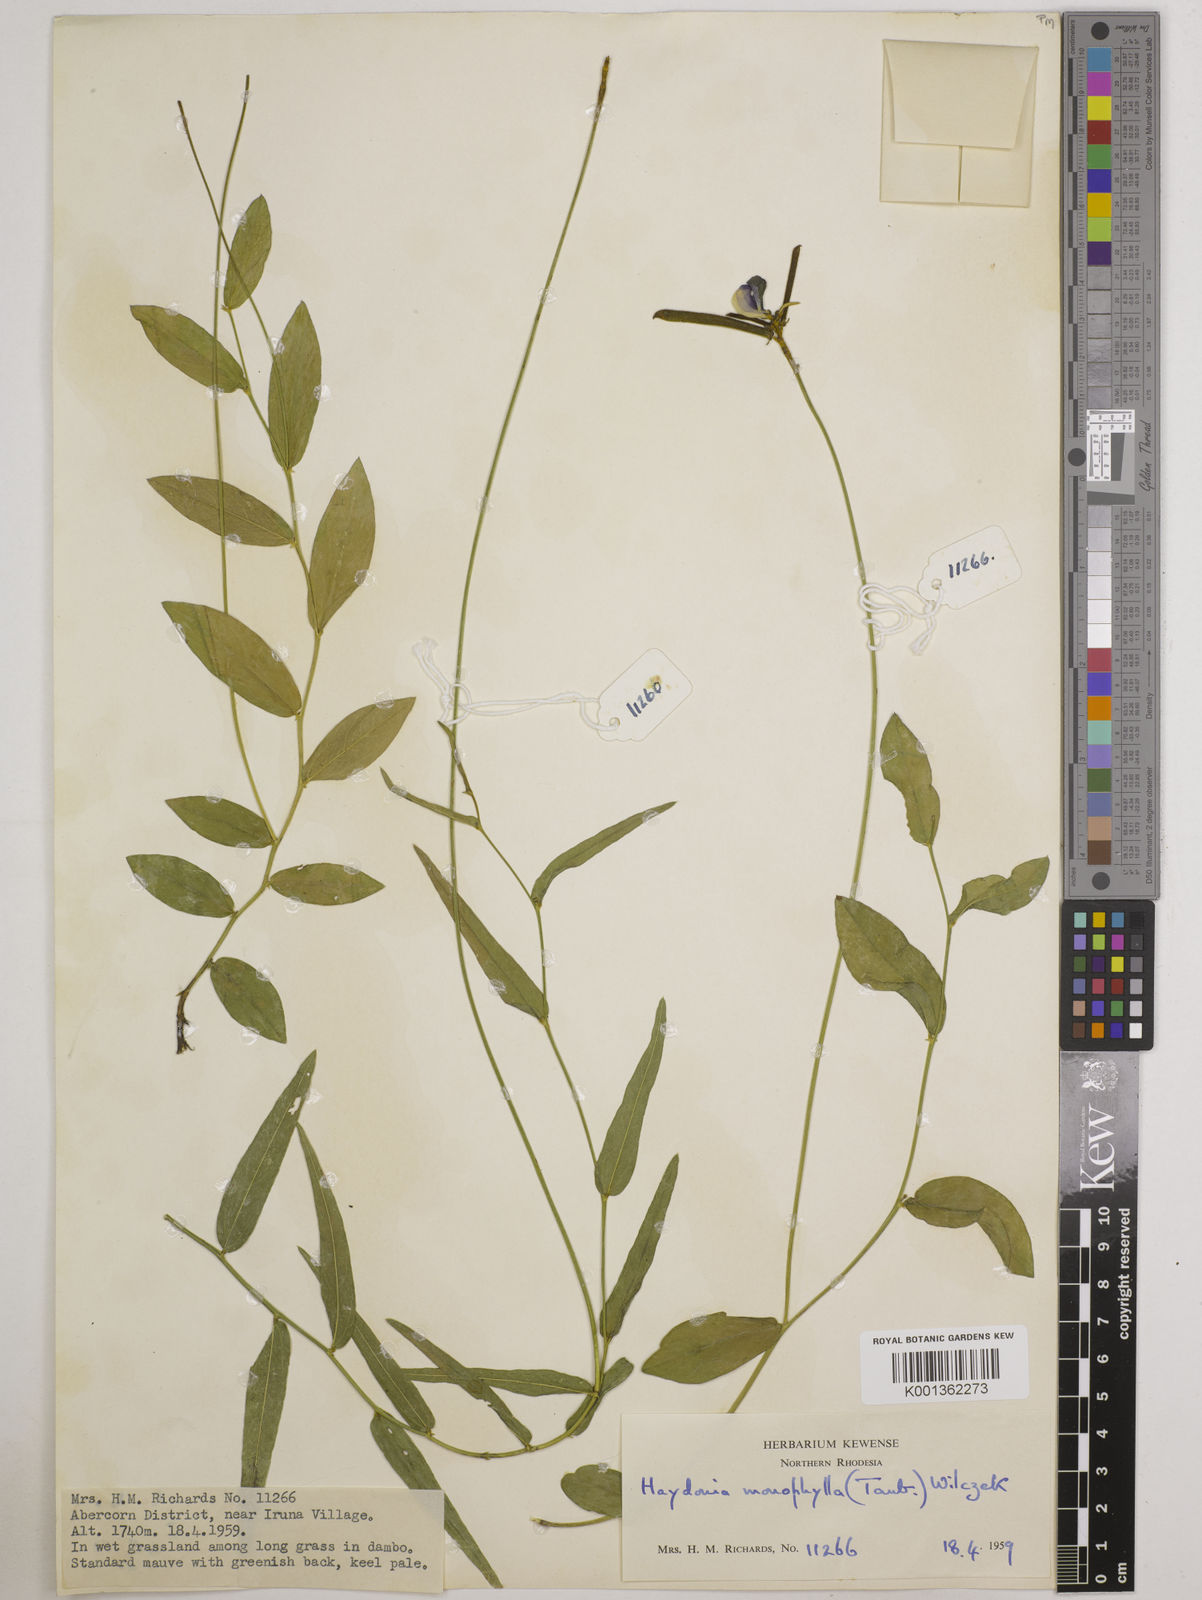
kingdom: Plantae
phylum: Tracheophyta
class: Magnoliopsida
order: Fabales
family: Fabaceae
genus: Vigna
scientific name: Vigna monophylla
